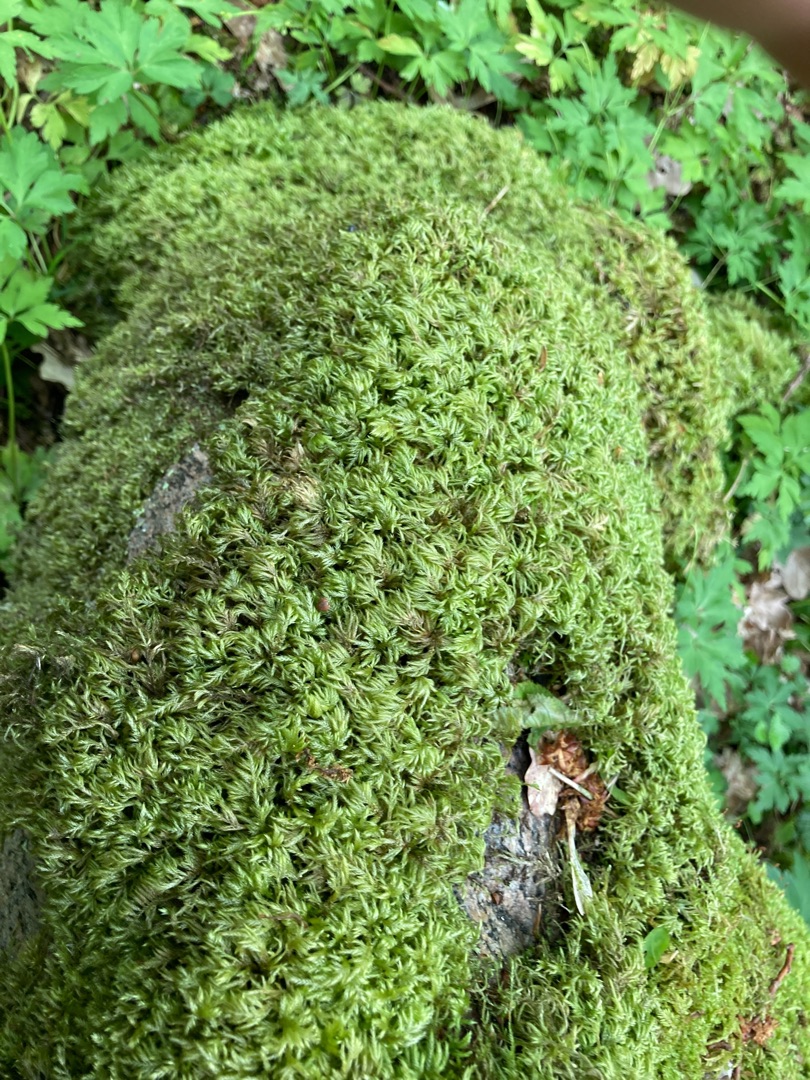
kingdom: Plantae
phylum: Bryophyta
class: Bryopsida
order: Hypnales
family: Lembophyllaceae
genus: Pseudisothecium
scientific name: Pseudisothecium myosuroides
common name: Slank stammemos
